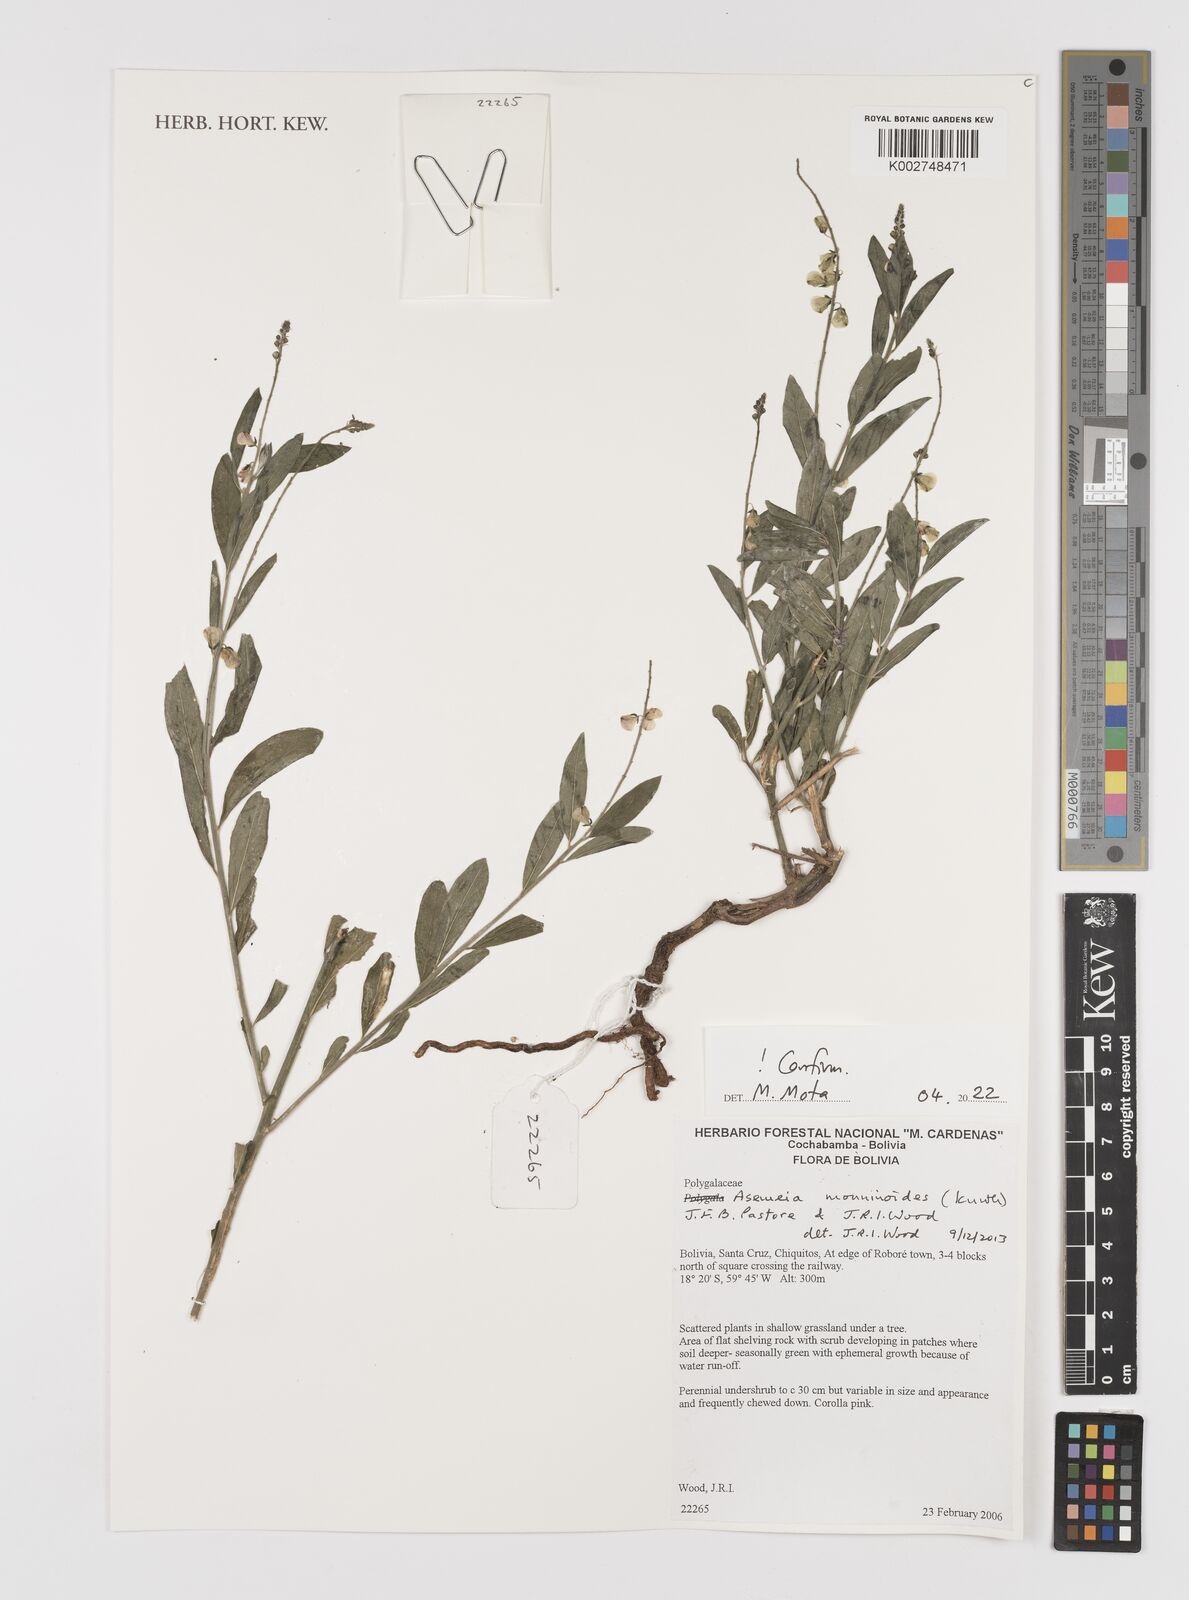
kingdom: Plantae
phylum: Tracheophyta
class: Magnoliopsida
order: Fabales
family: Polygalaceae
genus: Asemeia
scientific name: Asemeia monninoides
